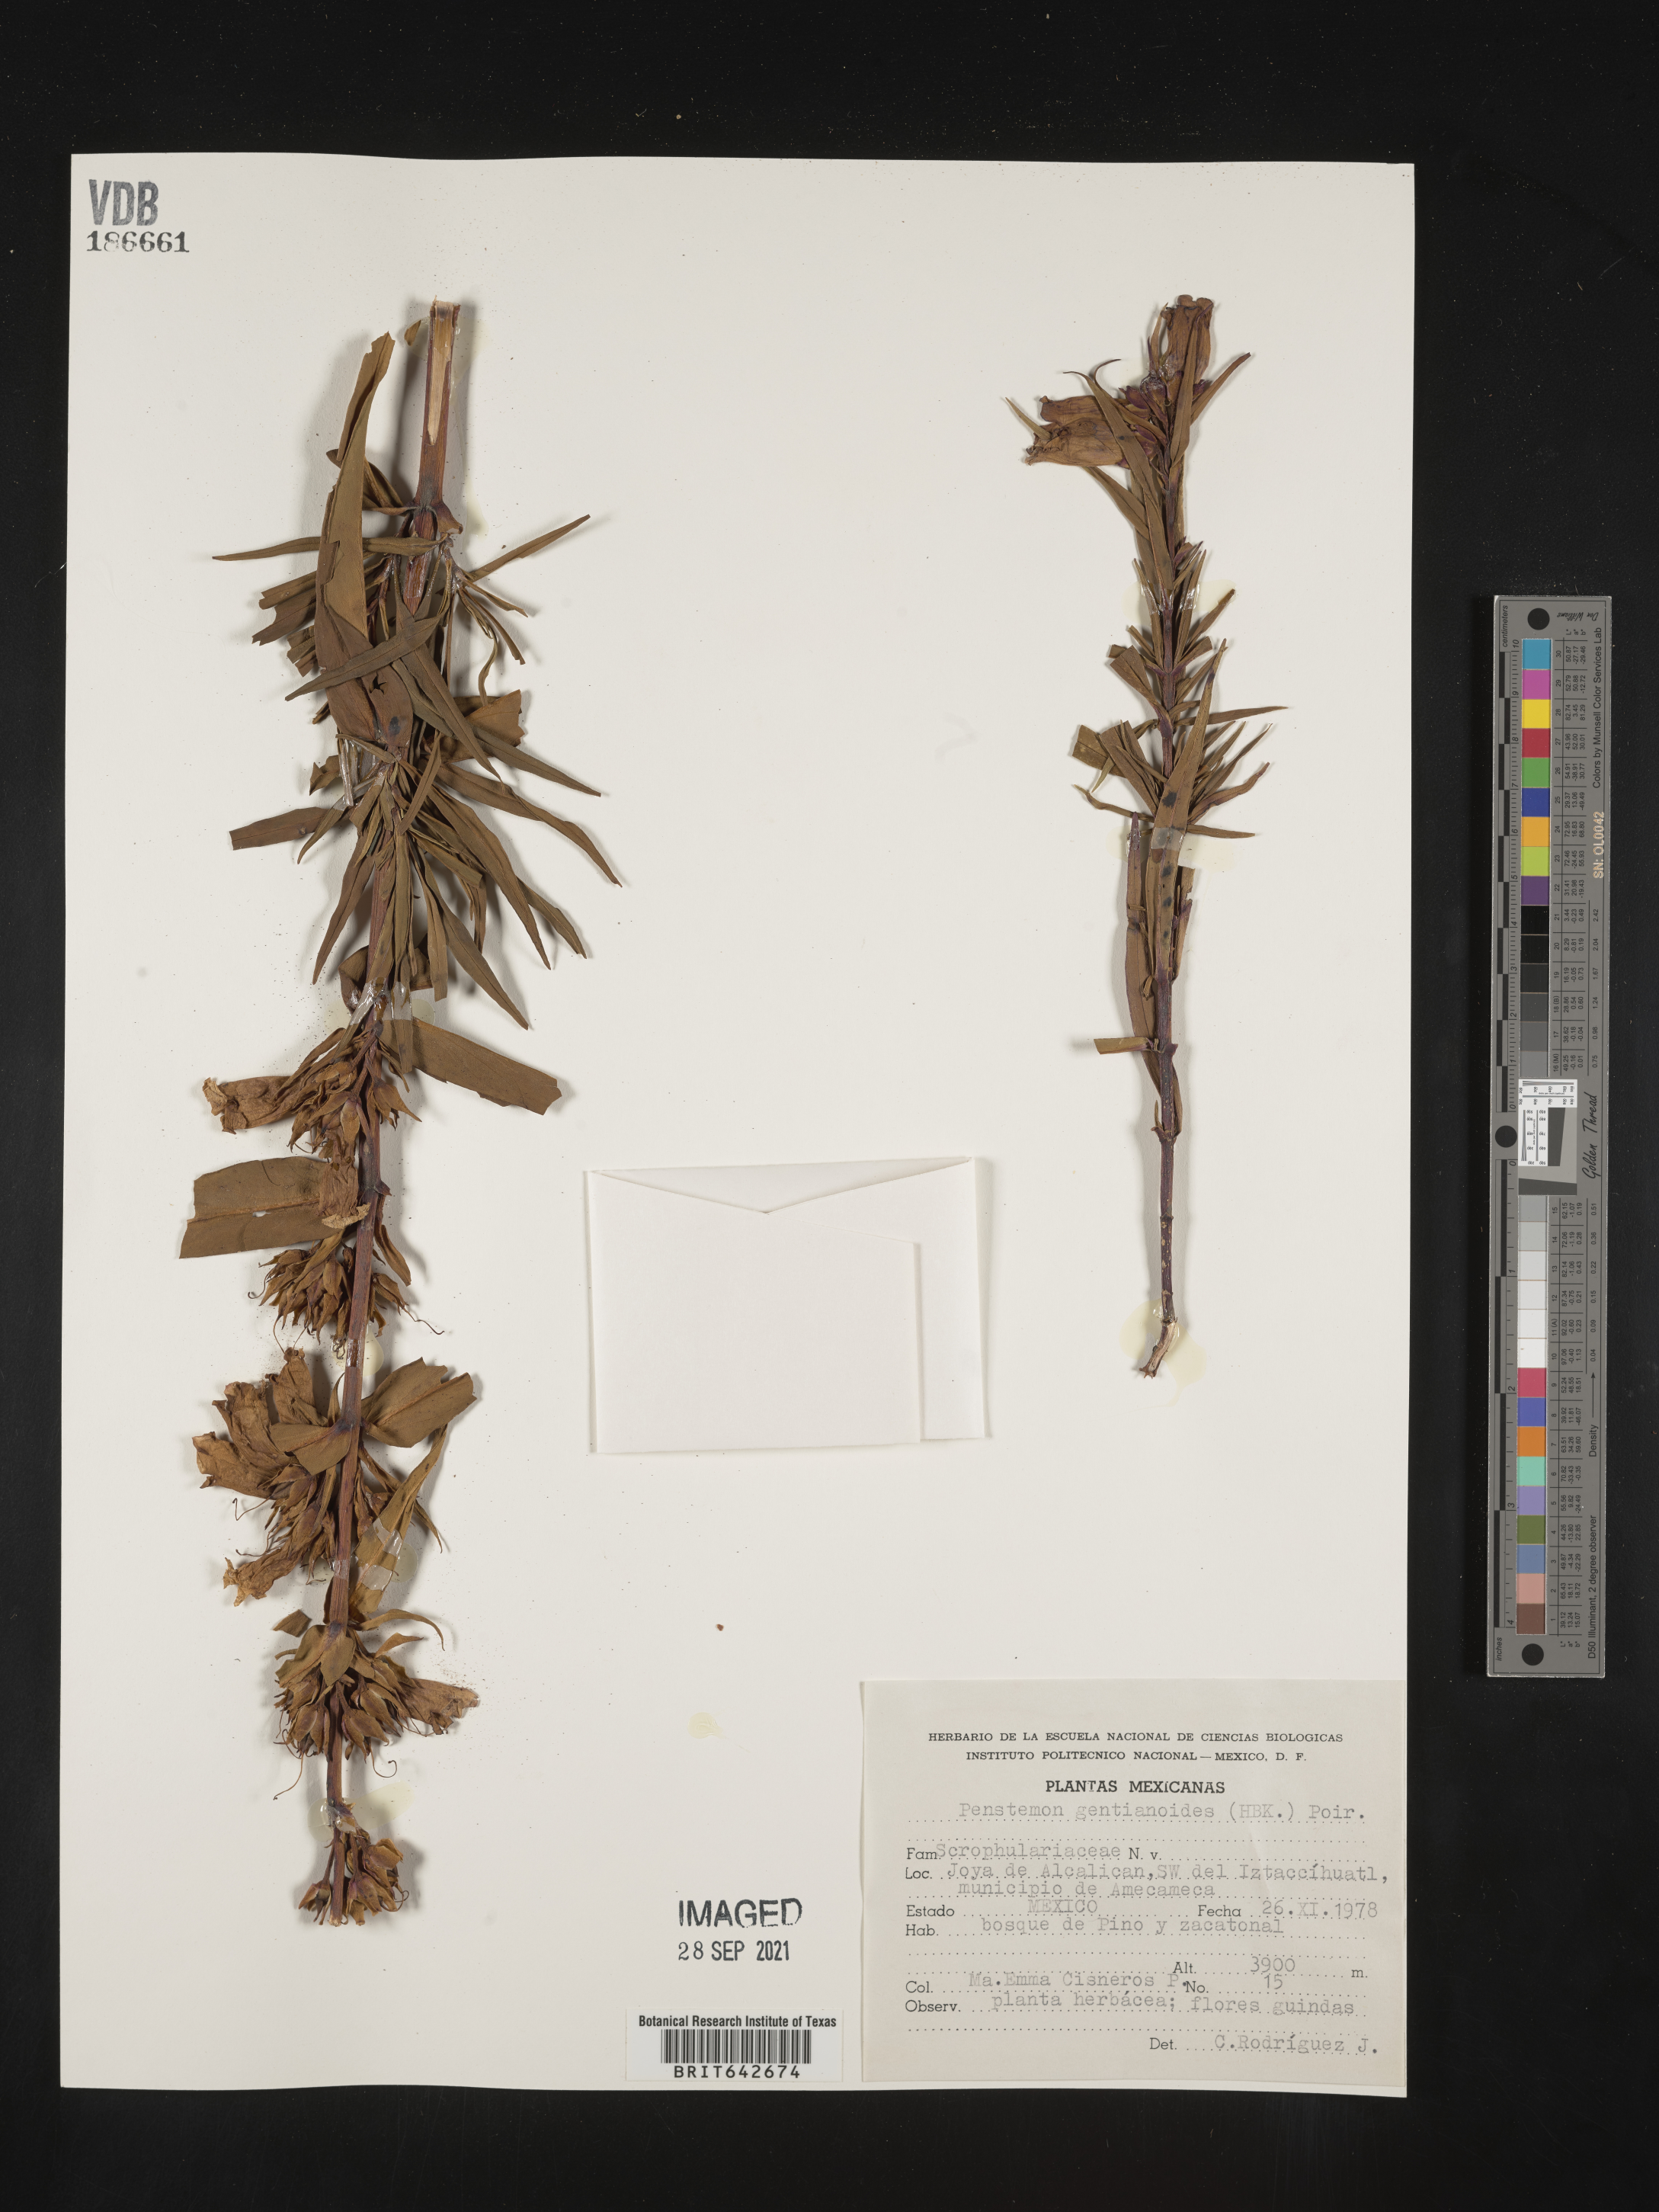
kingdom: Plantae
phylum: Tracheophyta
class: Magnoliopsida
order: Lamiales
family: Plantaginaceae
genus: Penstemon
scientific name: Penstemon
